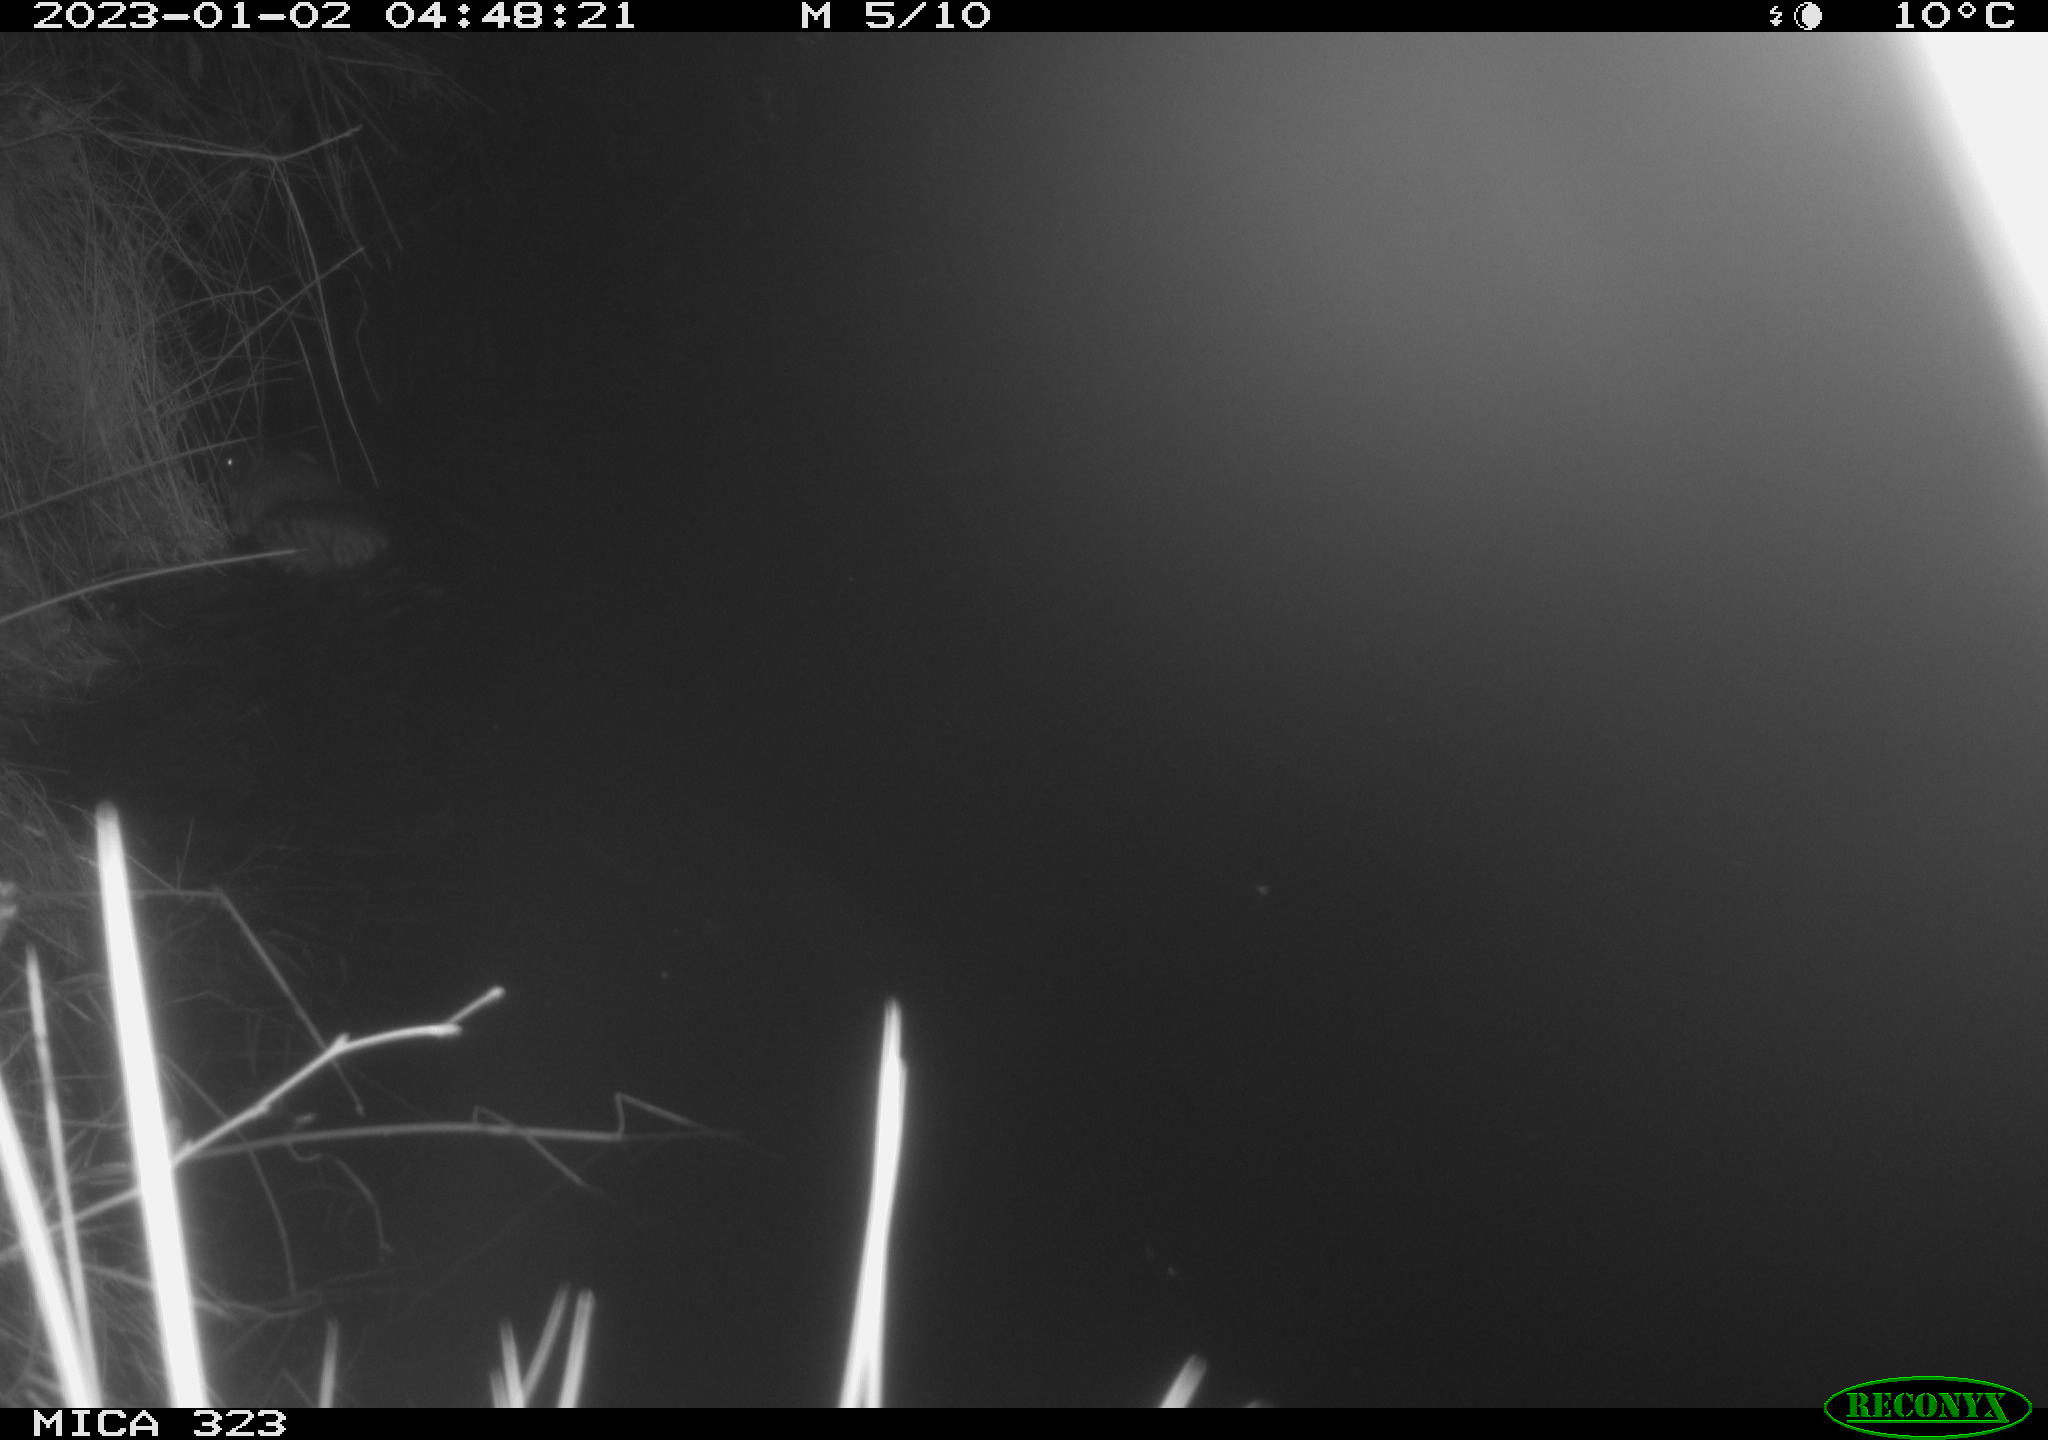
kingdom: Animalia
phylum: Chordata
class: Mammalia
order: Rodentia
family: Cricetidae
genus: Ondatra
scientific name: Ondatra zibethicus
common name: Muskrat
